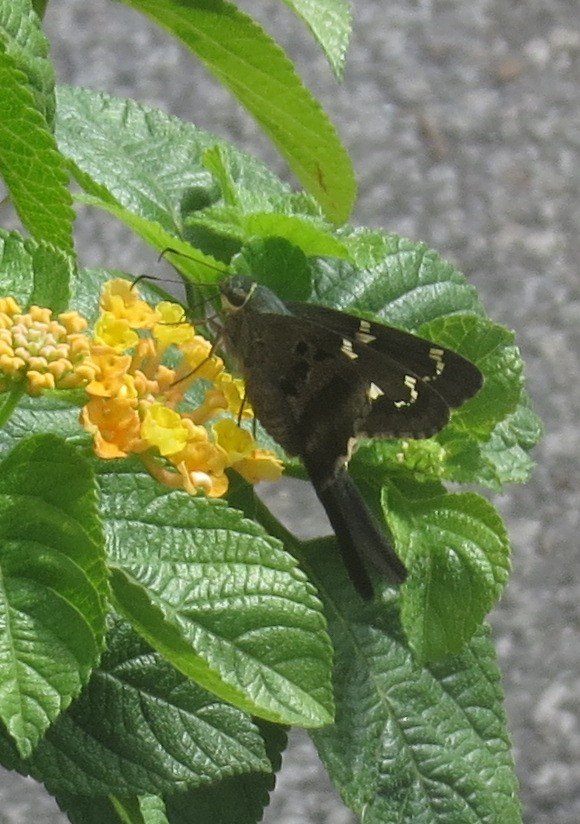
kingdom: Animalia
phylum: Arthropoda
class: Insecta
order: Lepidoptera
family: Hesperiidae
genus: Urbanus
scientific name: Urbanus proteus
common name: Long-tailed Skipper
